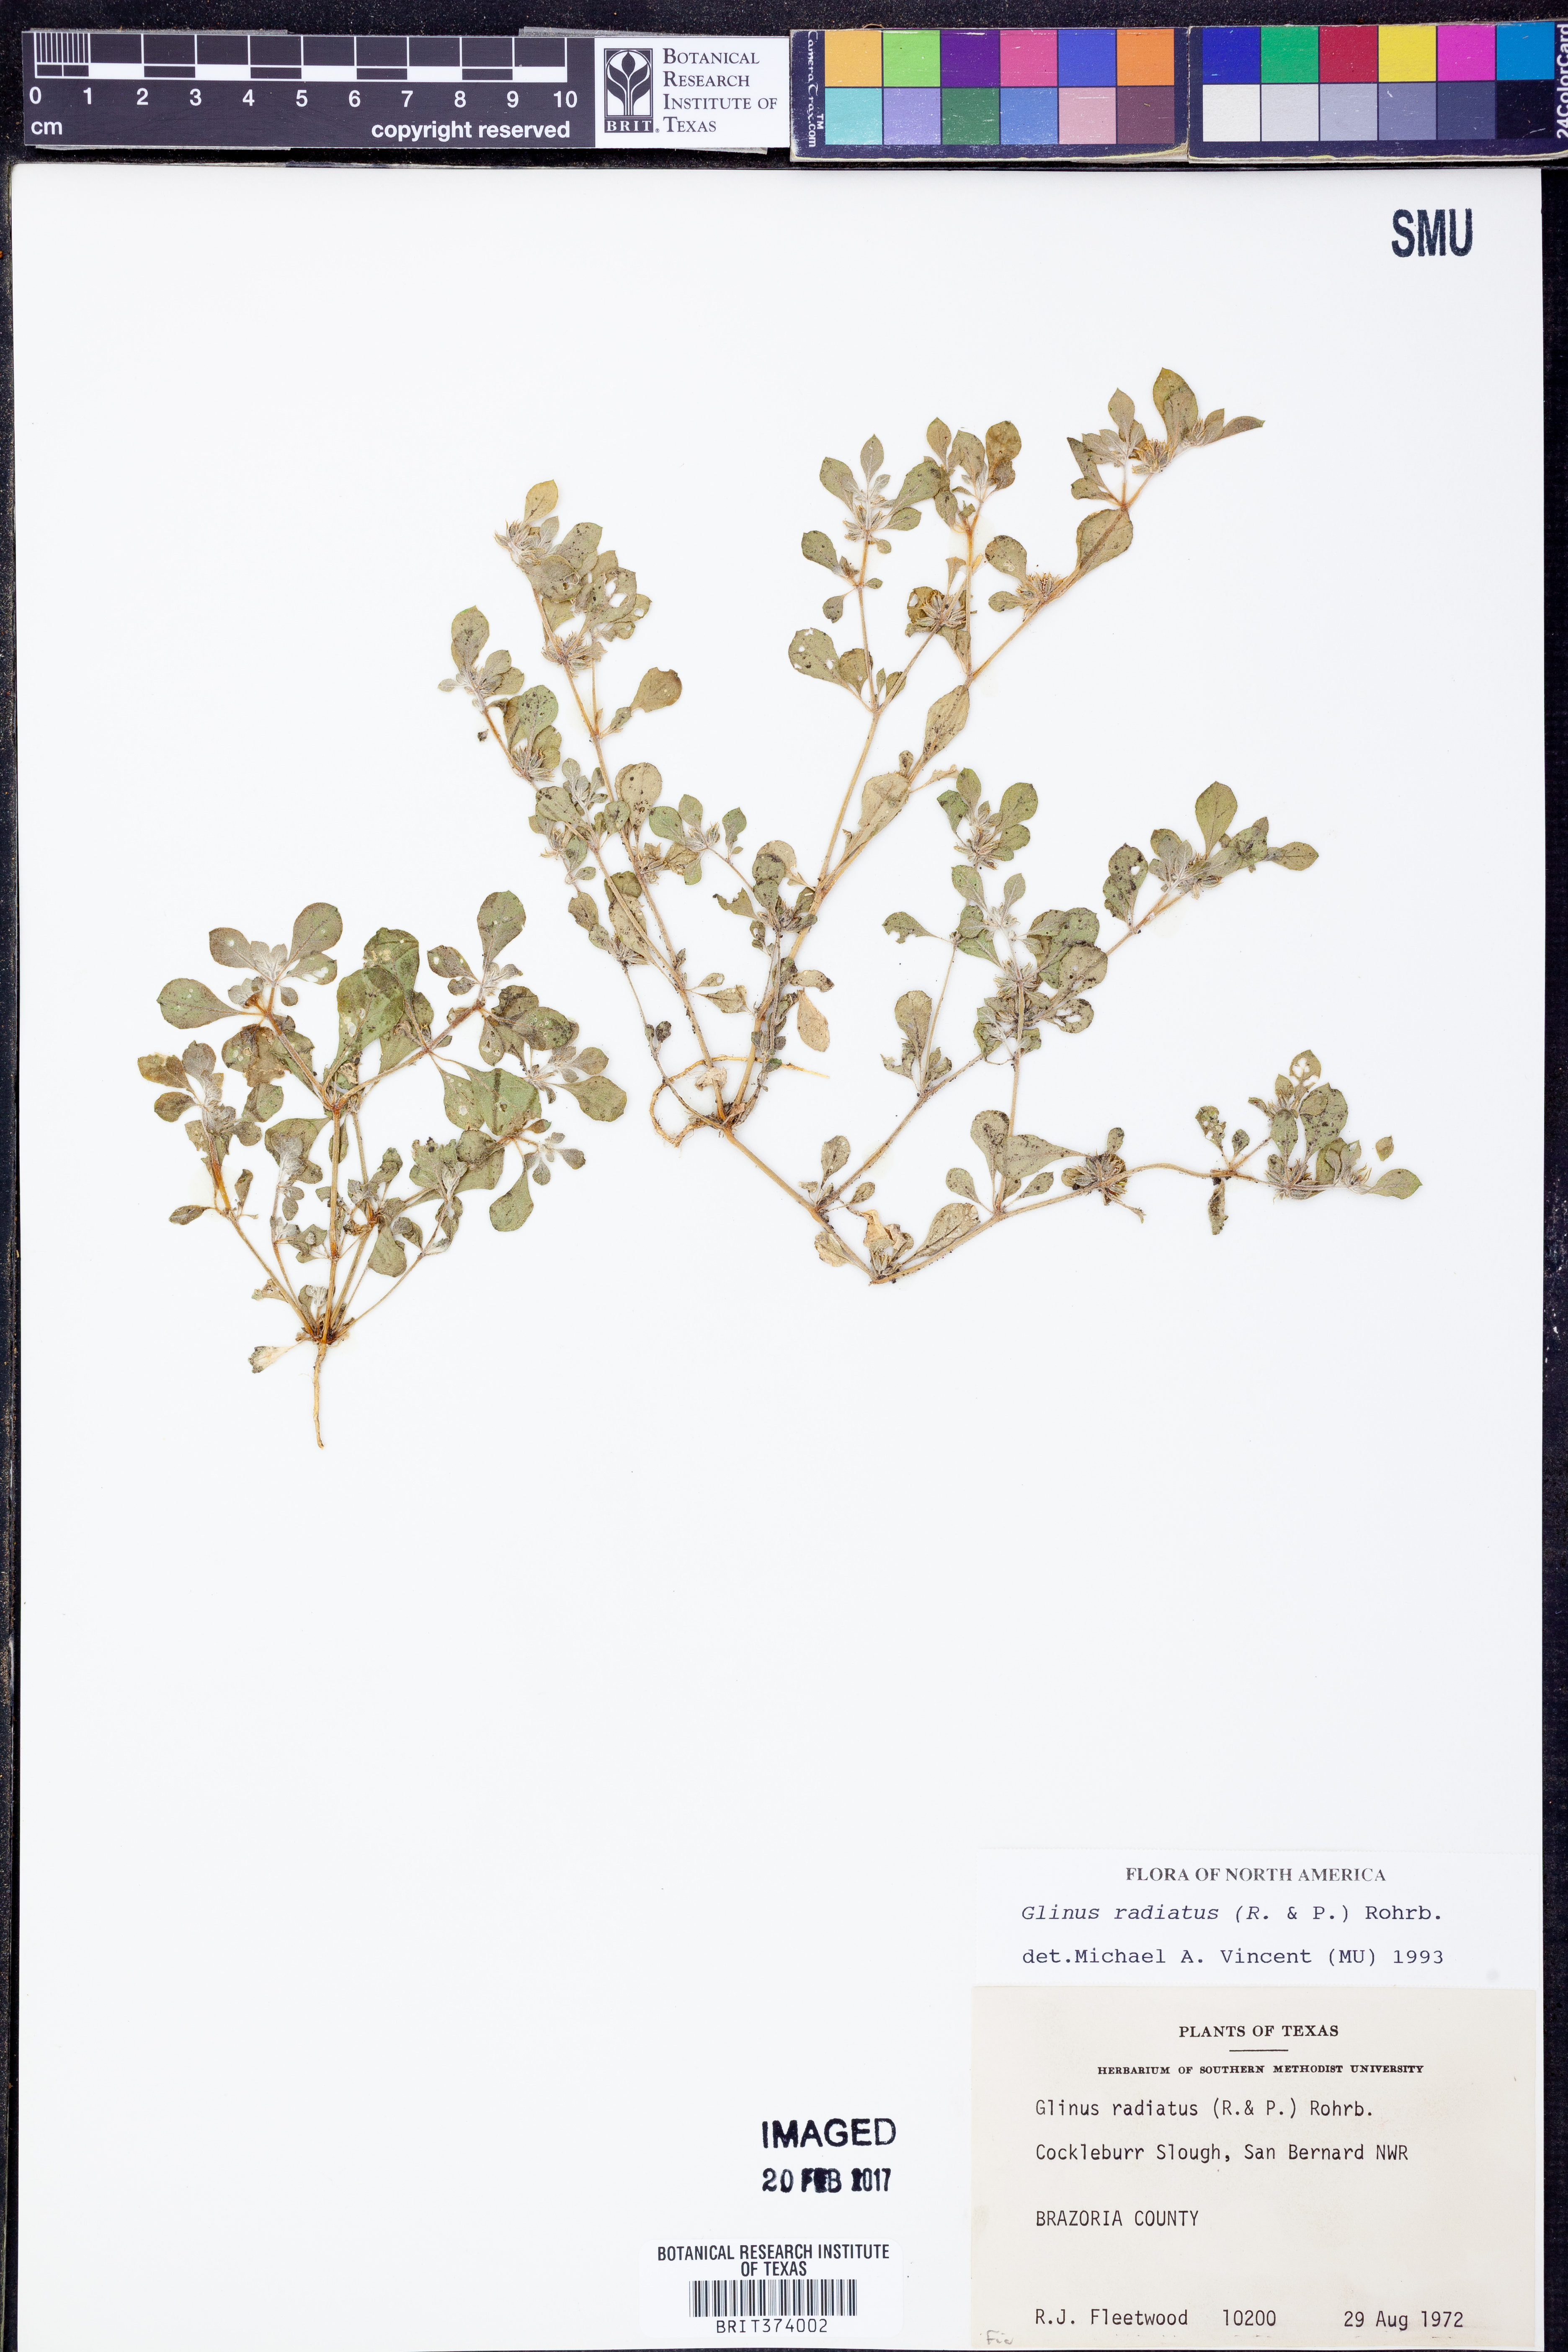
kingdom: Plantae
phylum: Tracheophyta
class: Magnoliopsida
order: Caryophyllales
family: Molluginaceae
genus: Glinus
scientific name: Glinus radiatus
